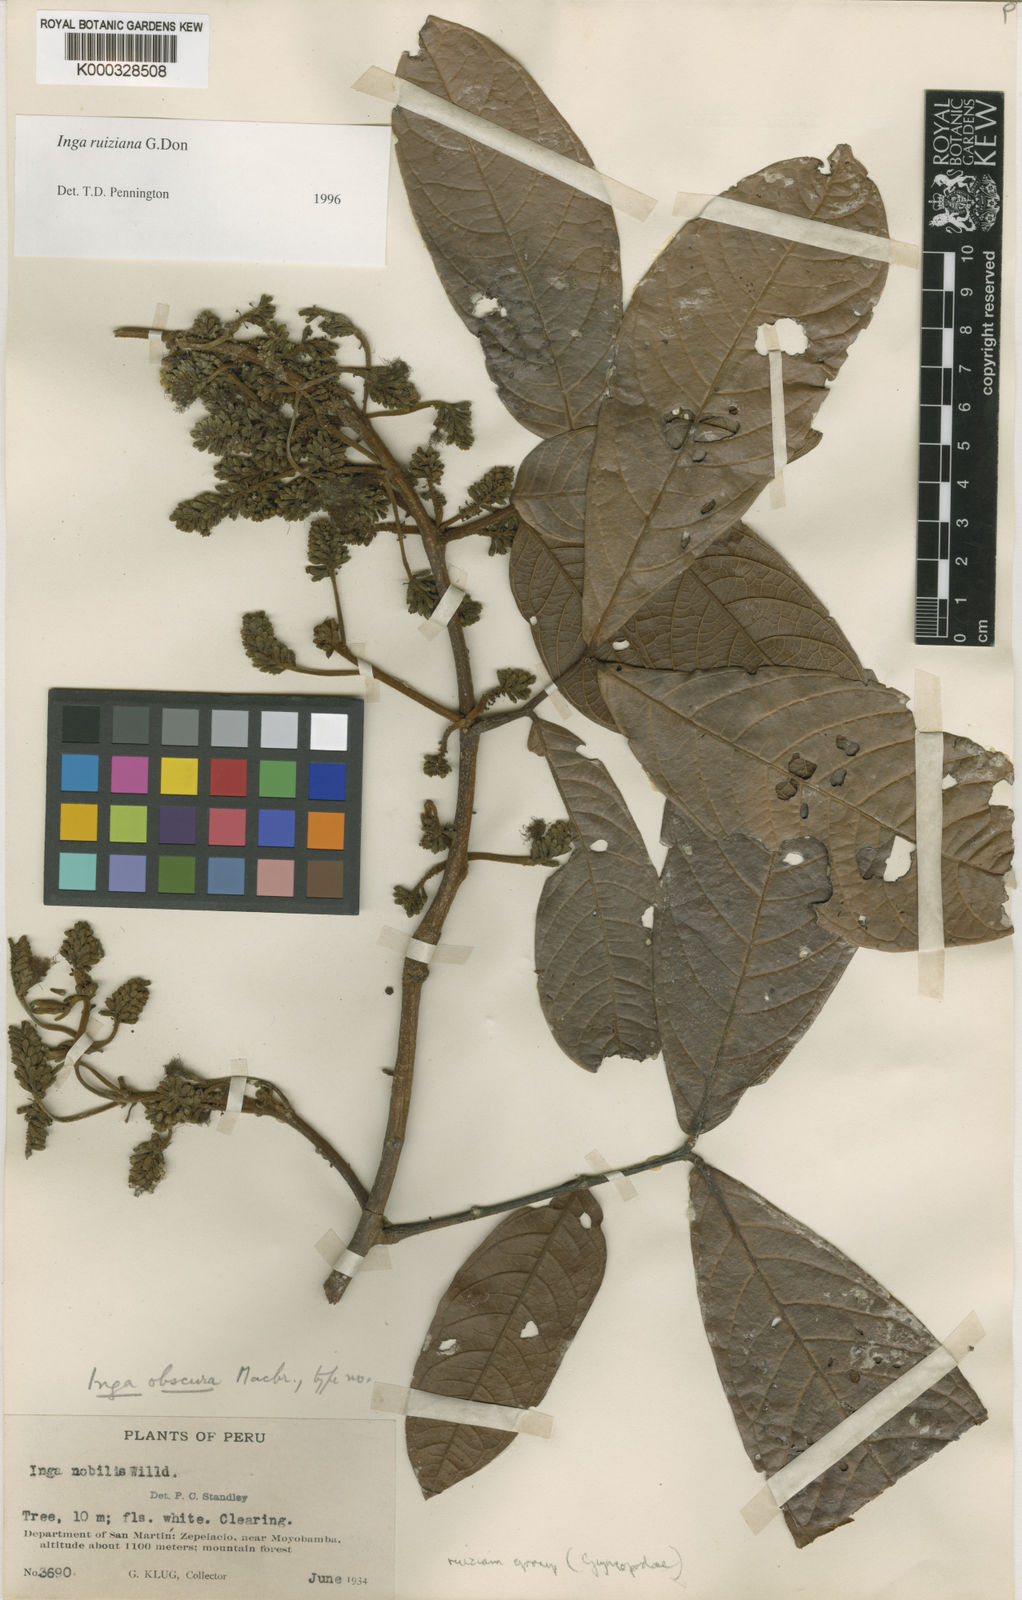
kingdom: Plantae
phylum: Tracheophyta
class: Magnoliopsida
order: Fabales
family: Fabaceae
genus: Inga
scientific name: Inga nobilis
